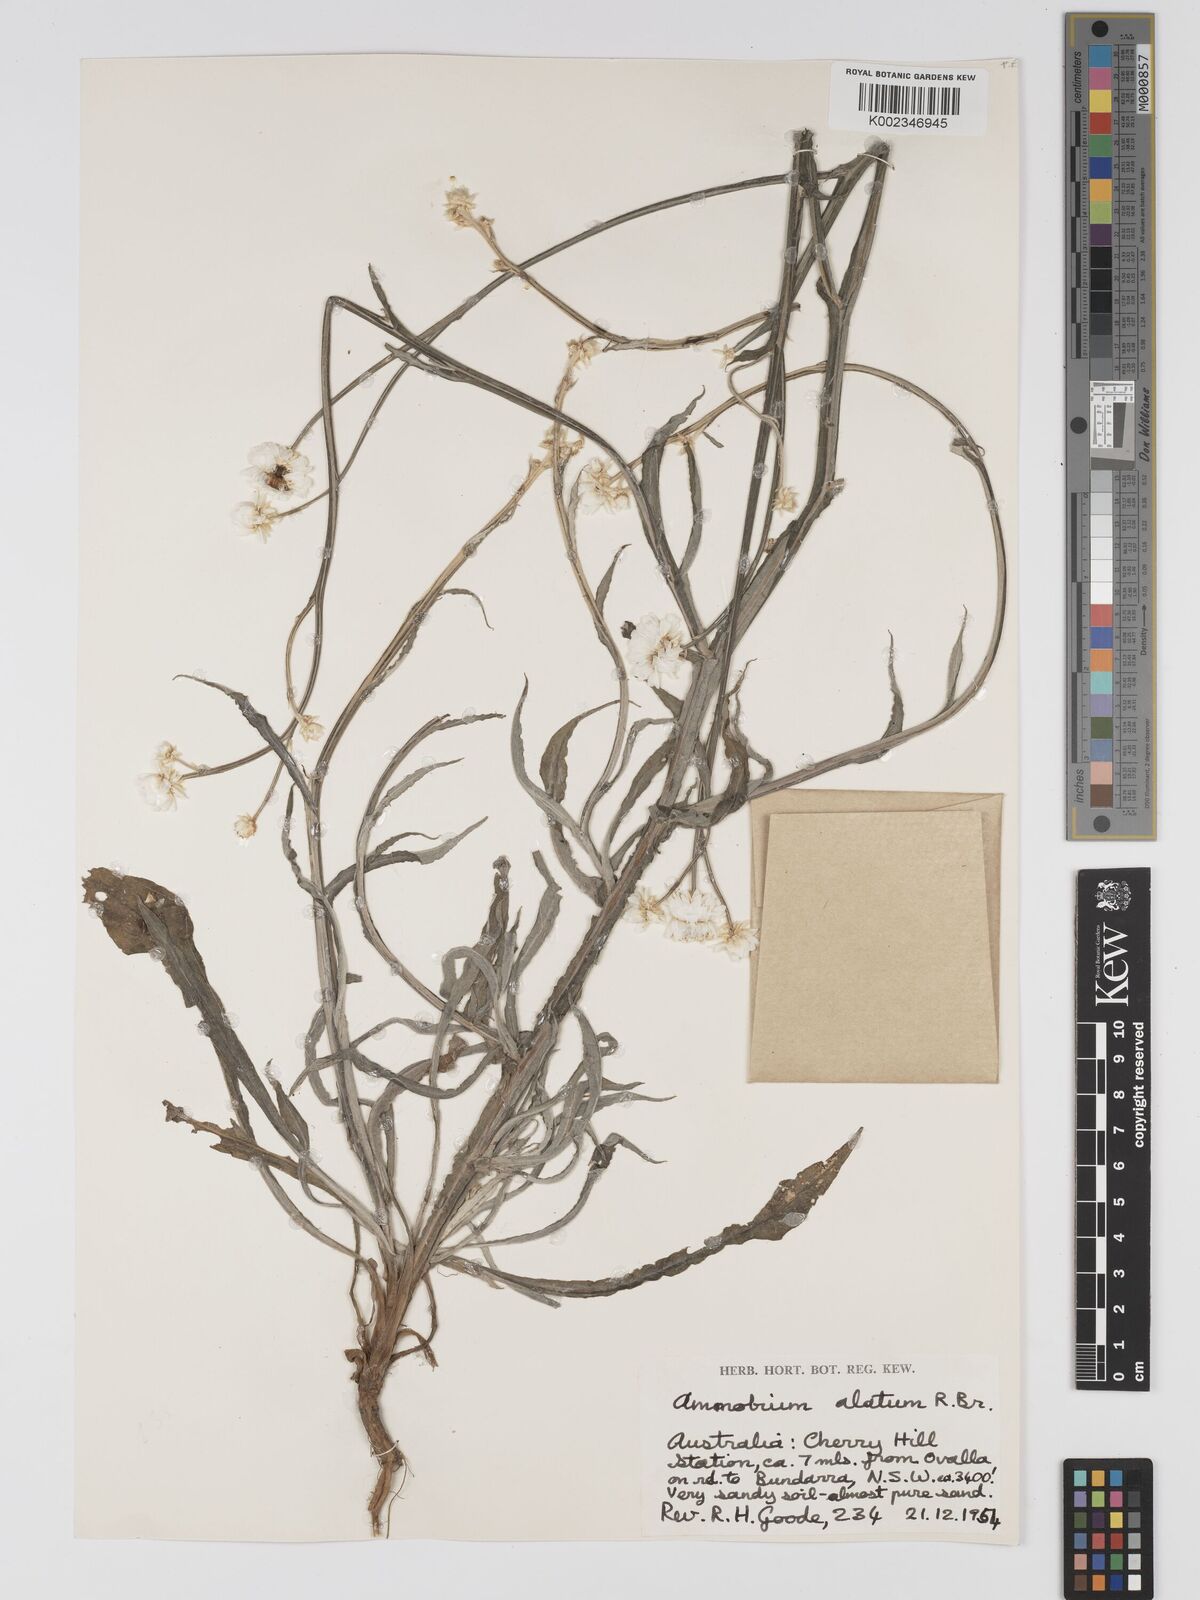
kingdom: Plantae
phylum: Tracheophyta
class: Magnoliopsida
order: Asterales
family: Asteraceae
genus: Ammobium
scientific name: Ammobium alatum
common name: Winged everlasting
